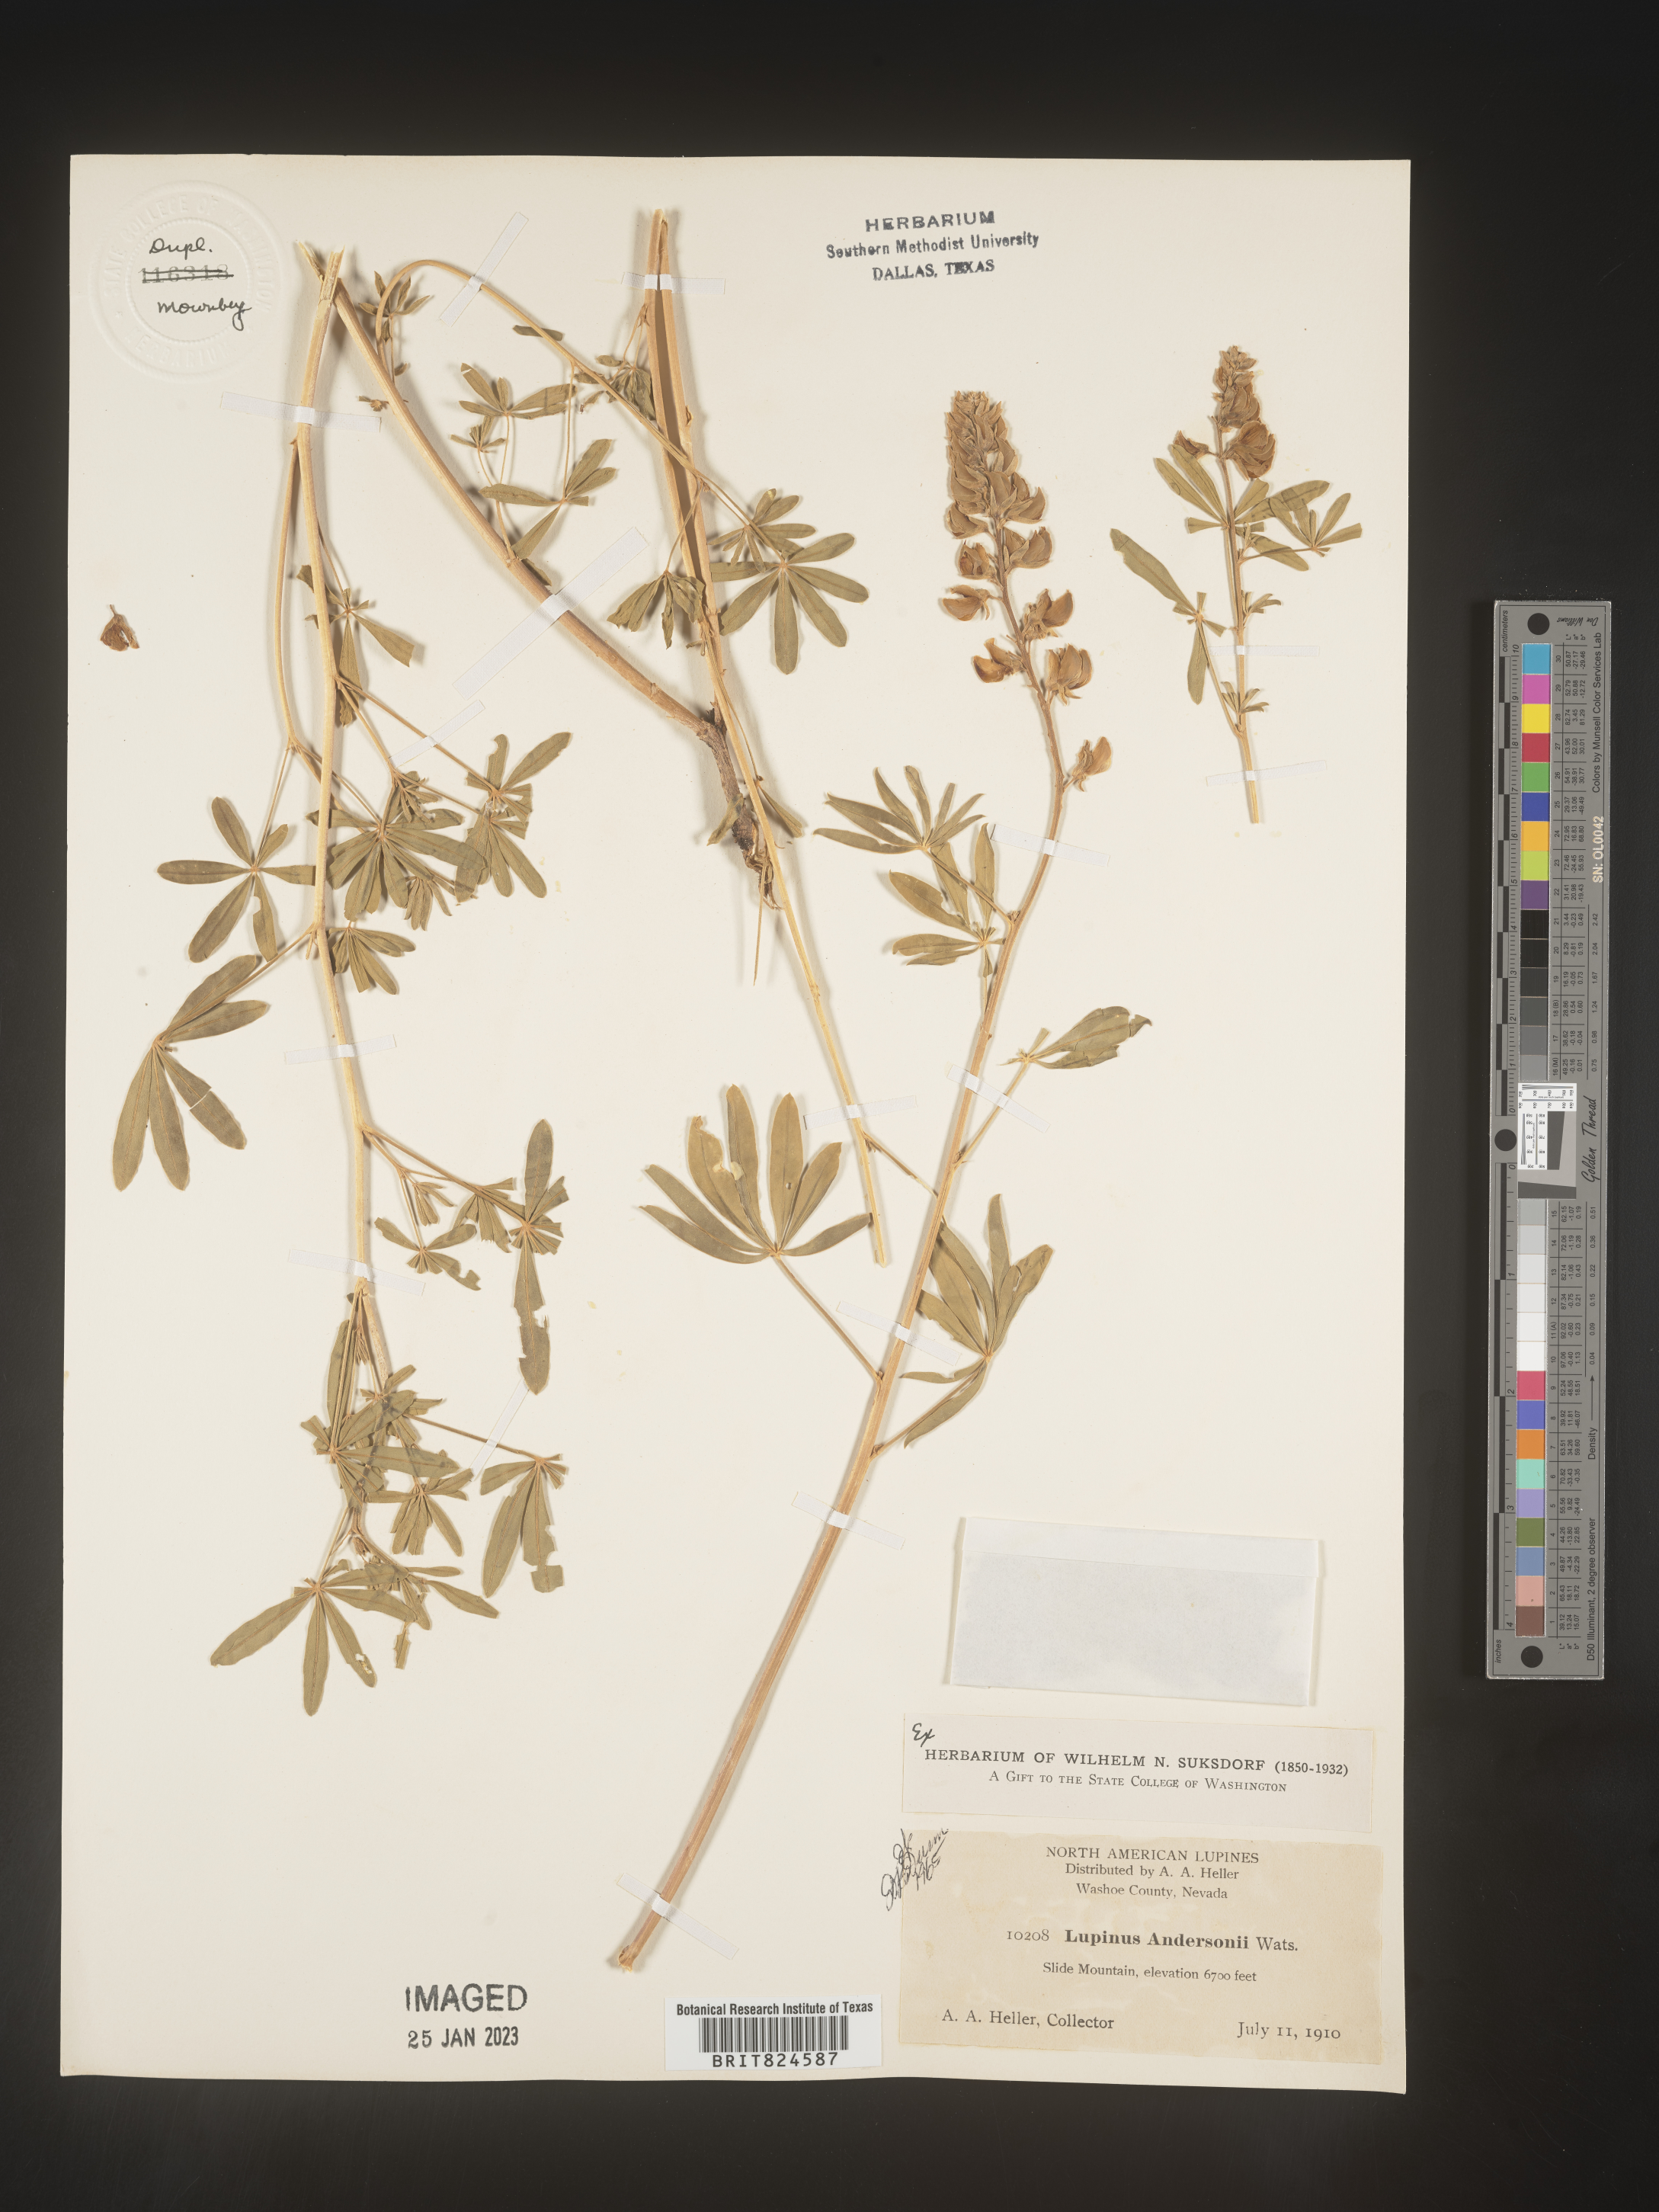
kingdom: Plantae
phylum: Tracheophyta
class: Magnoliopsida
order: Fabales
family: Fabaceae
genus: Lupinus
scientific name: Lupinus
